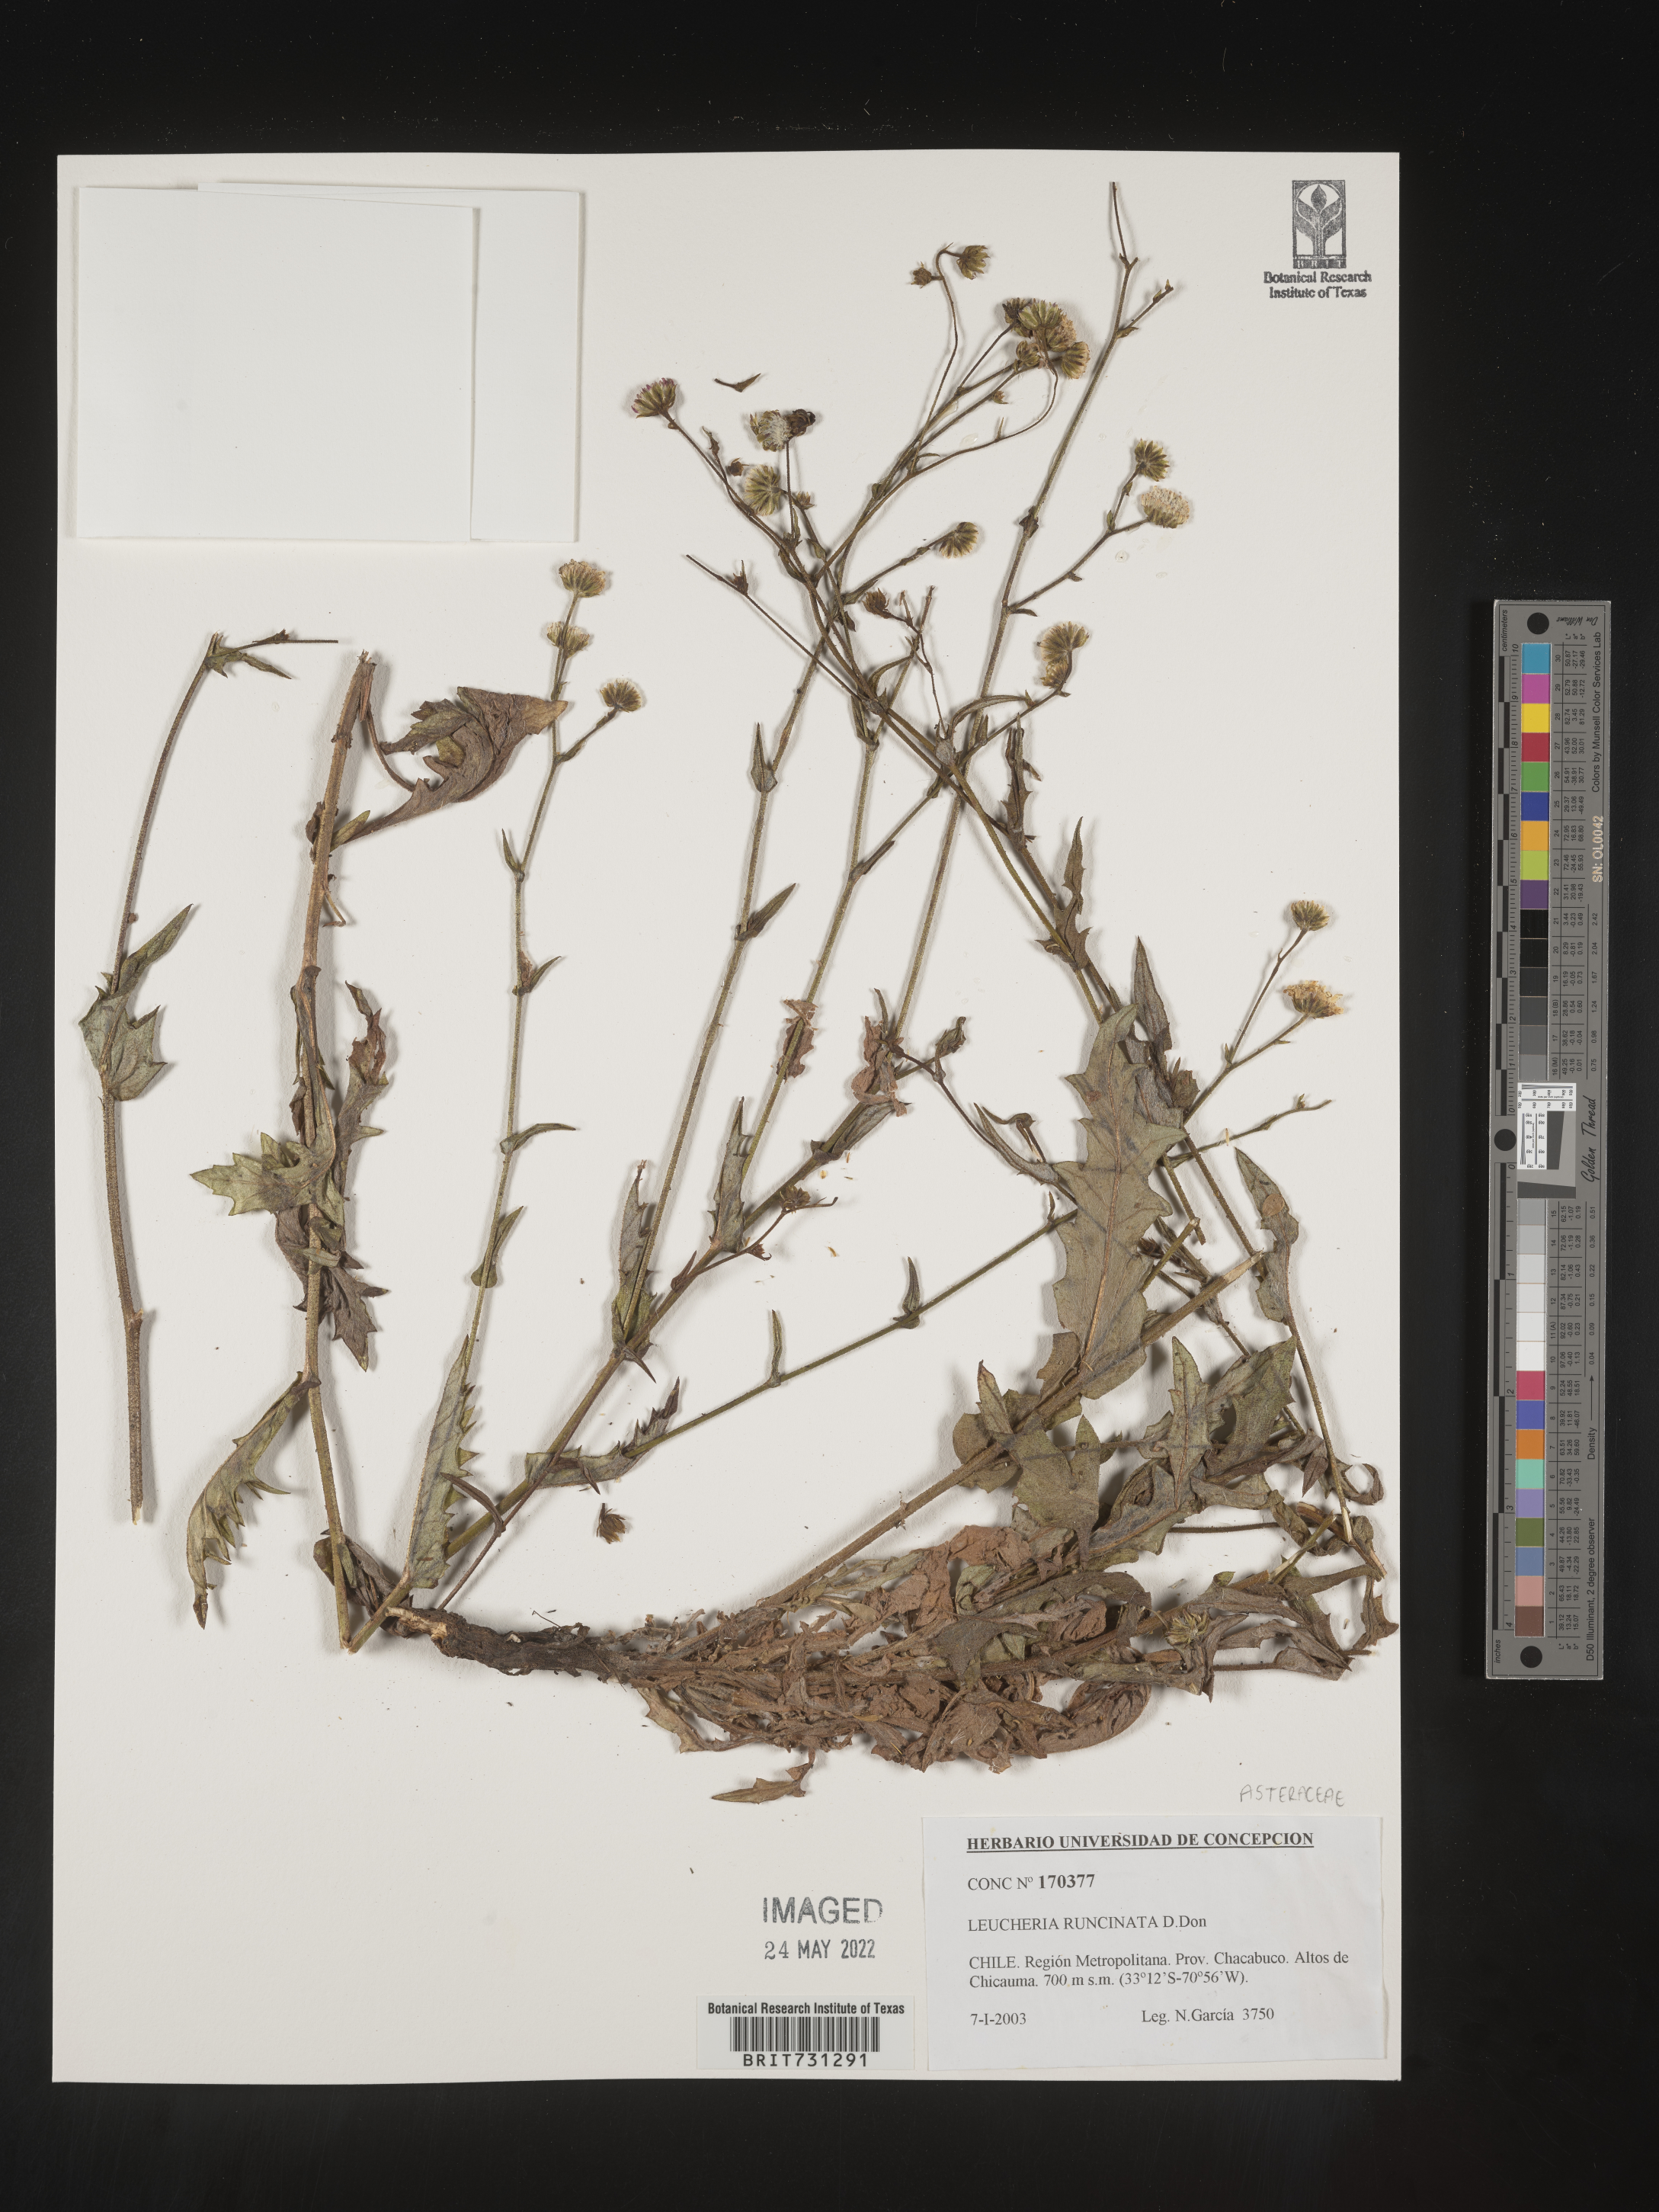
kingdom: Plantae
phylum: Tracheophyta
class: Magnoliopsida
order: Asterales
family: Asteraceae
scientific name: Asteraceae
